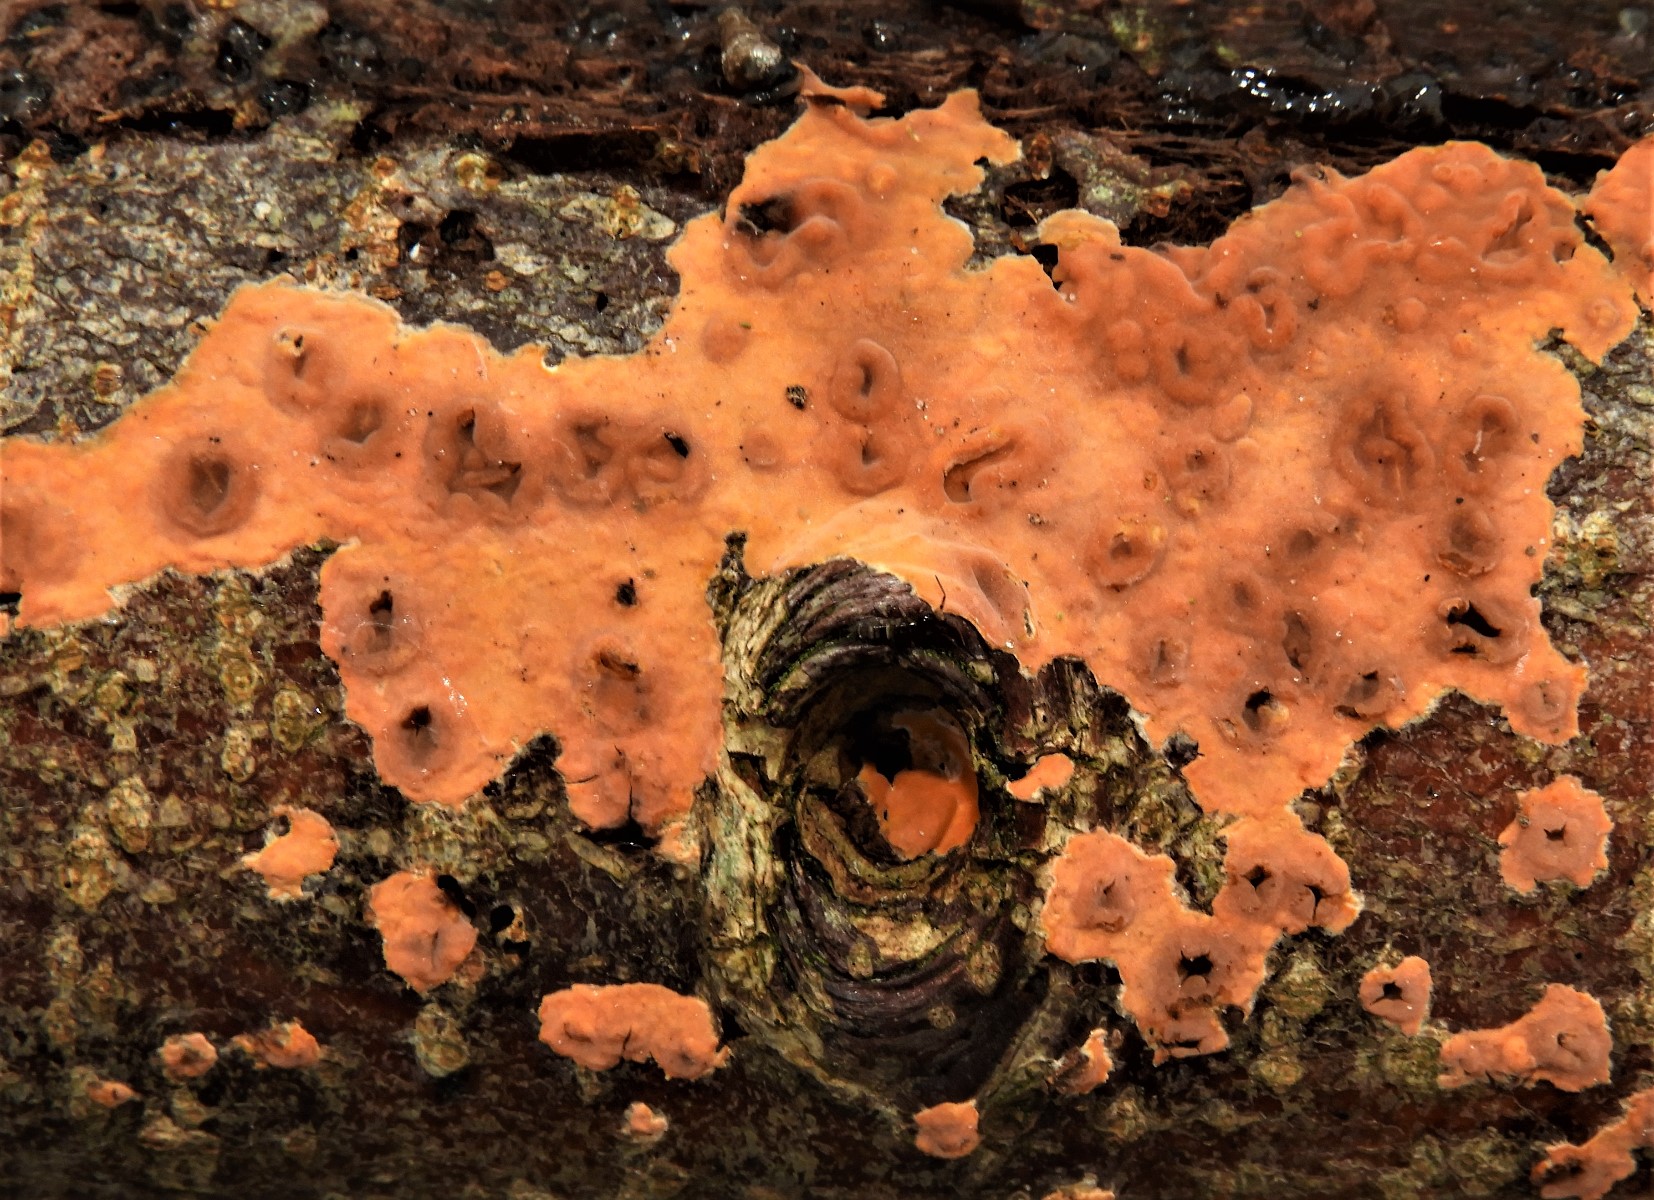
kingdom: Fungi
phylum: Basidiomycota
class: Agaricomycetes
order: Russulales
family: Peniophoraceae
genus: Peniophora
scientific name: Peniophora incarnata
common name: laksefarvet voksskind
